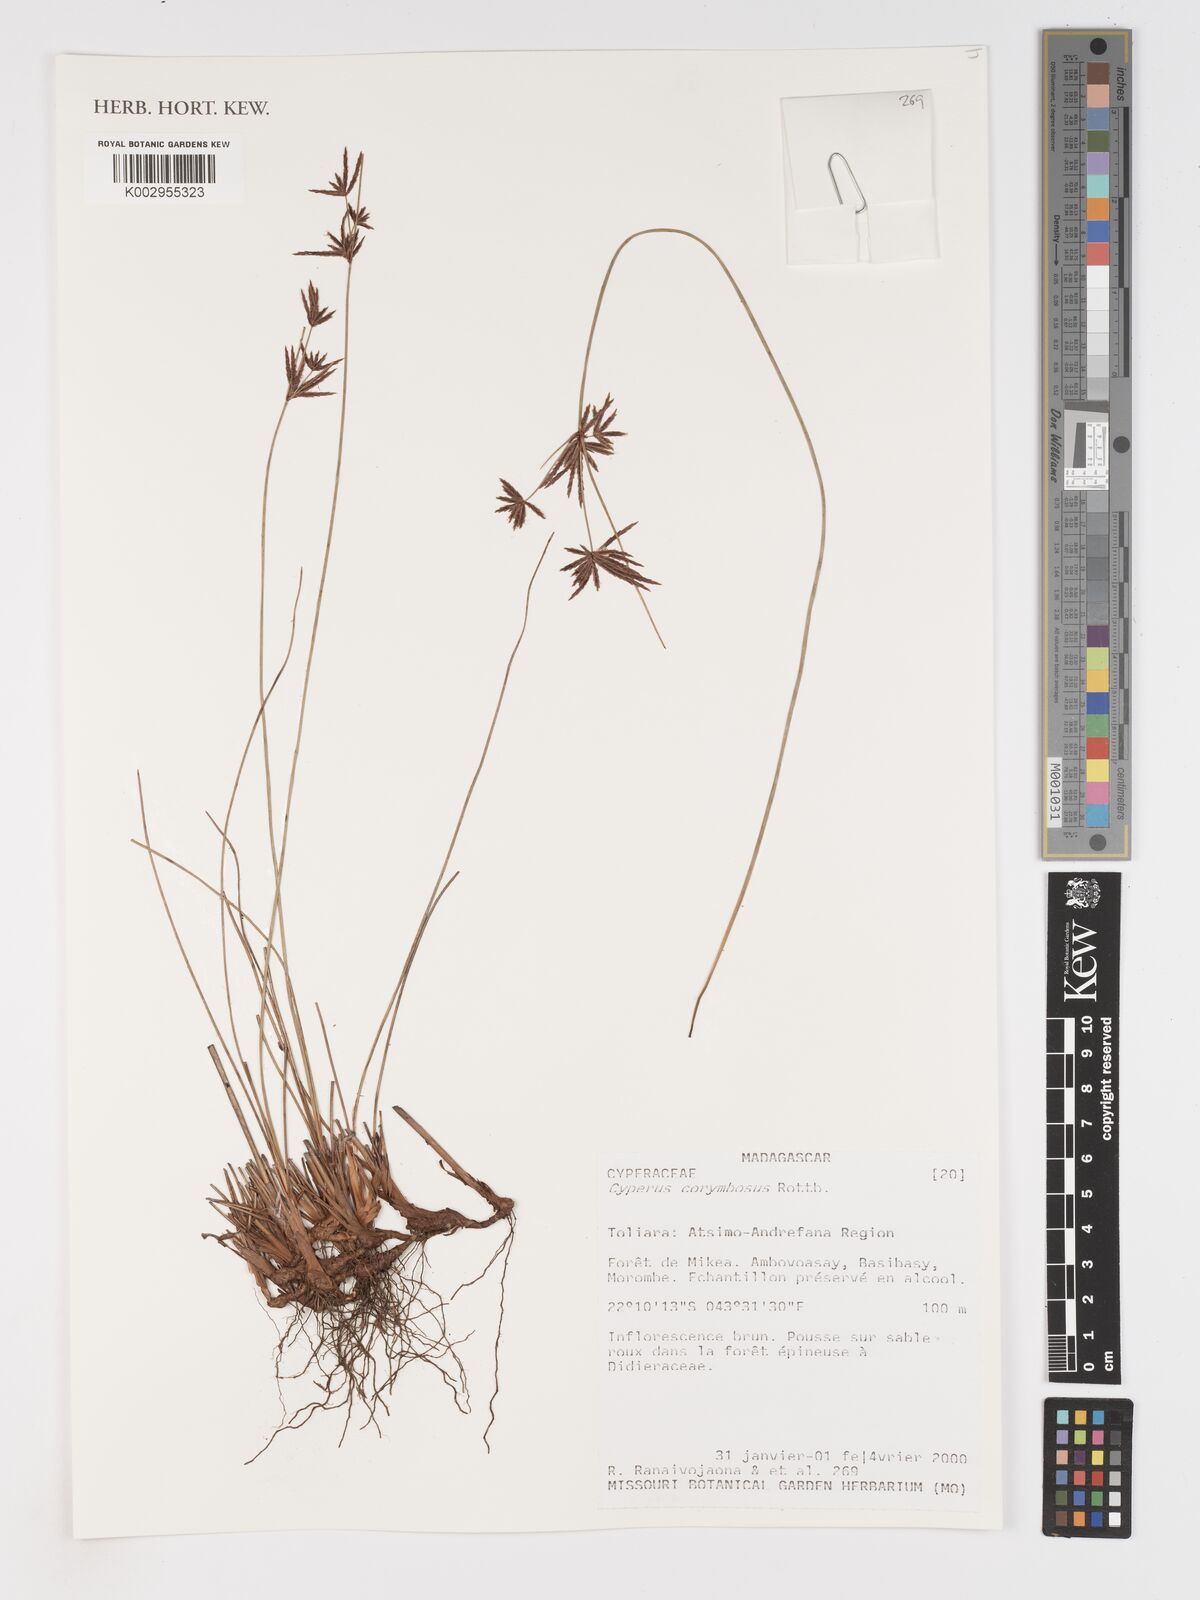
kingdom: Plantae
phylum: Tracheophyta
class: Liliopsida
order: Poales
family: Cyperaceae
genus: Cyperus
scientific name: Cyperus corymbosus
